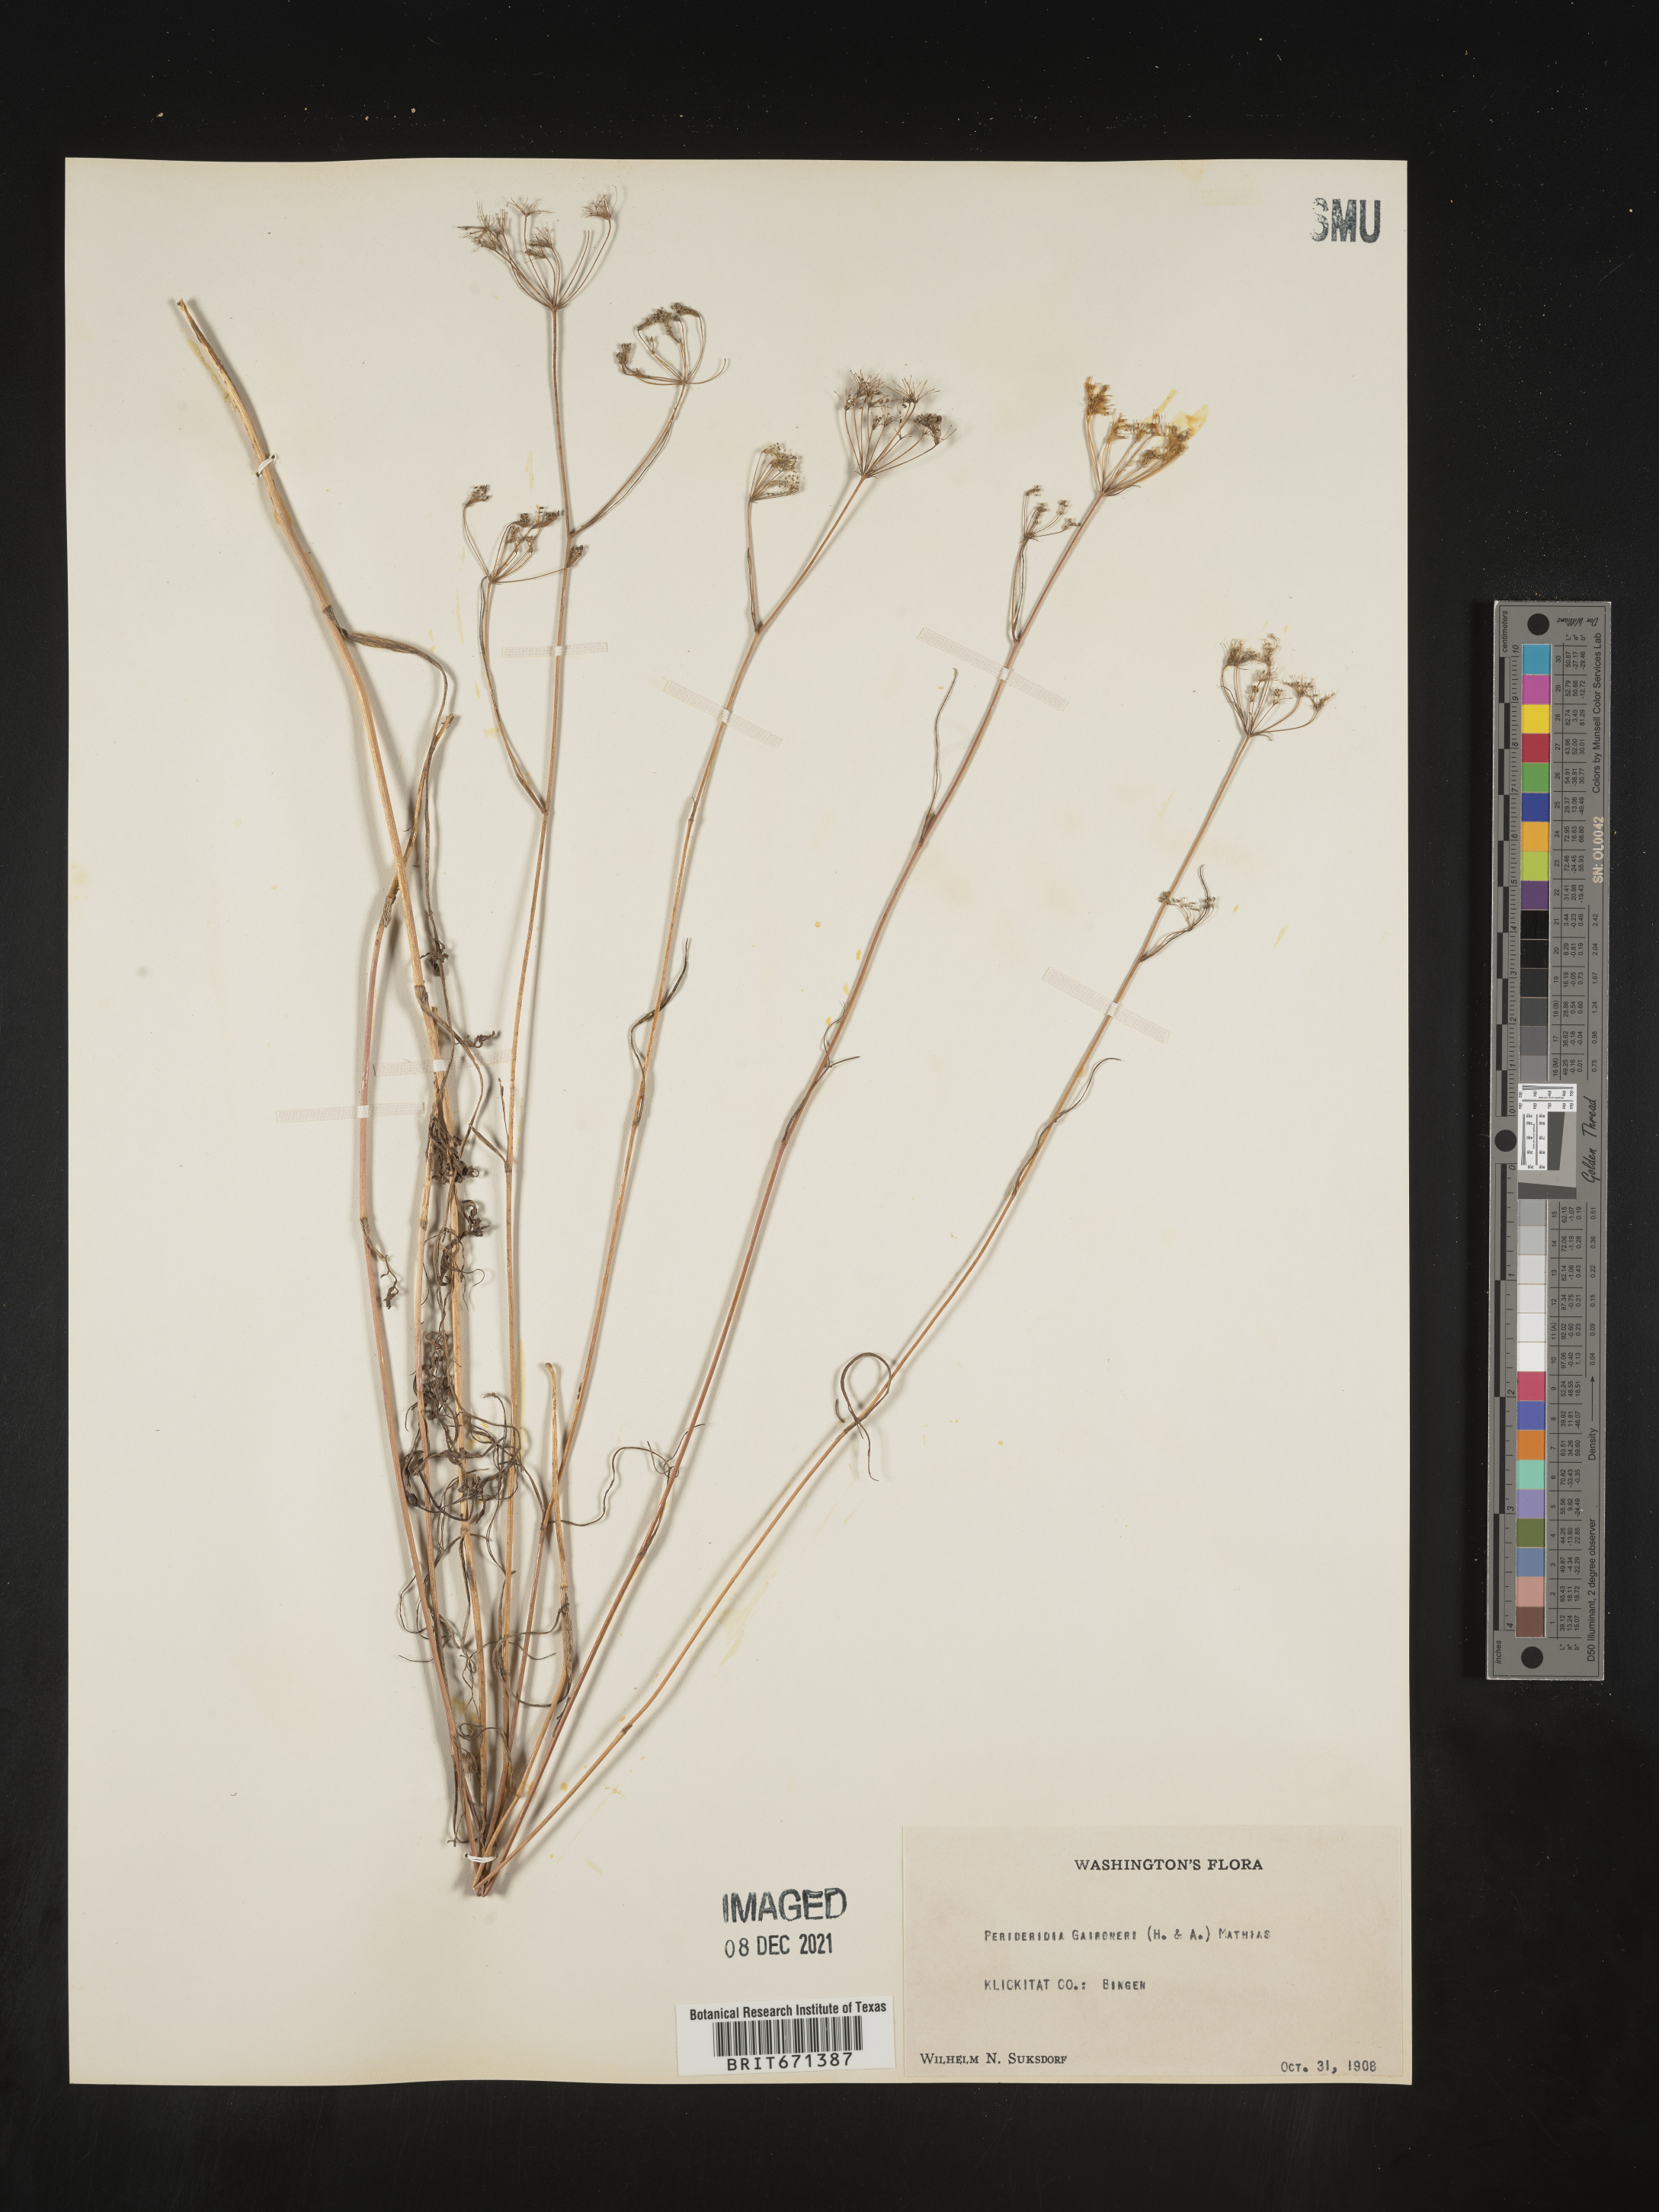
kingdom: Plantae
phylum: Tracheophyta
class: Magnoliopsida
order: Apiales
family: Apiaceae
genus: Perideridia
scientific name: Perideridia gairdneri
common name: False caraway
